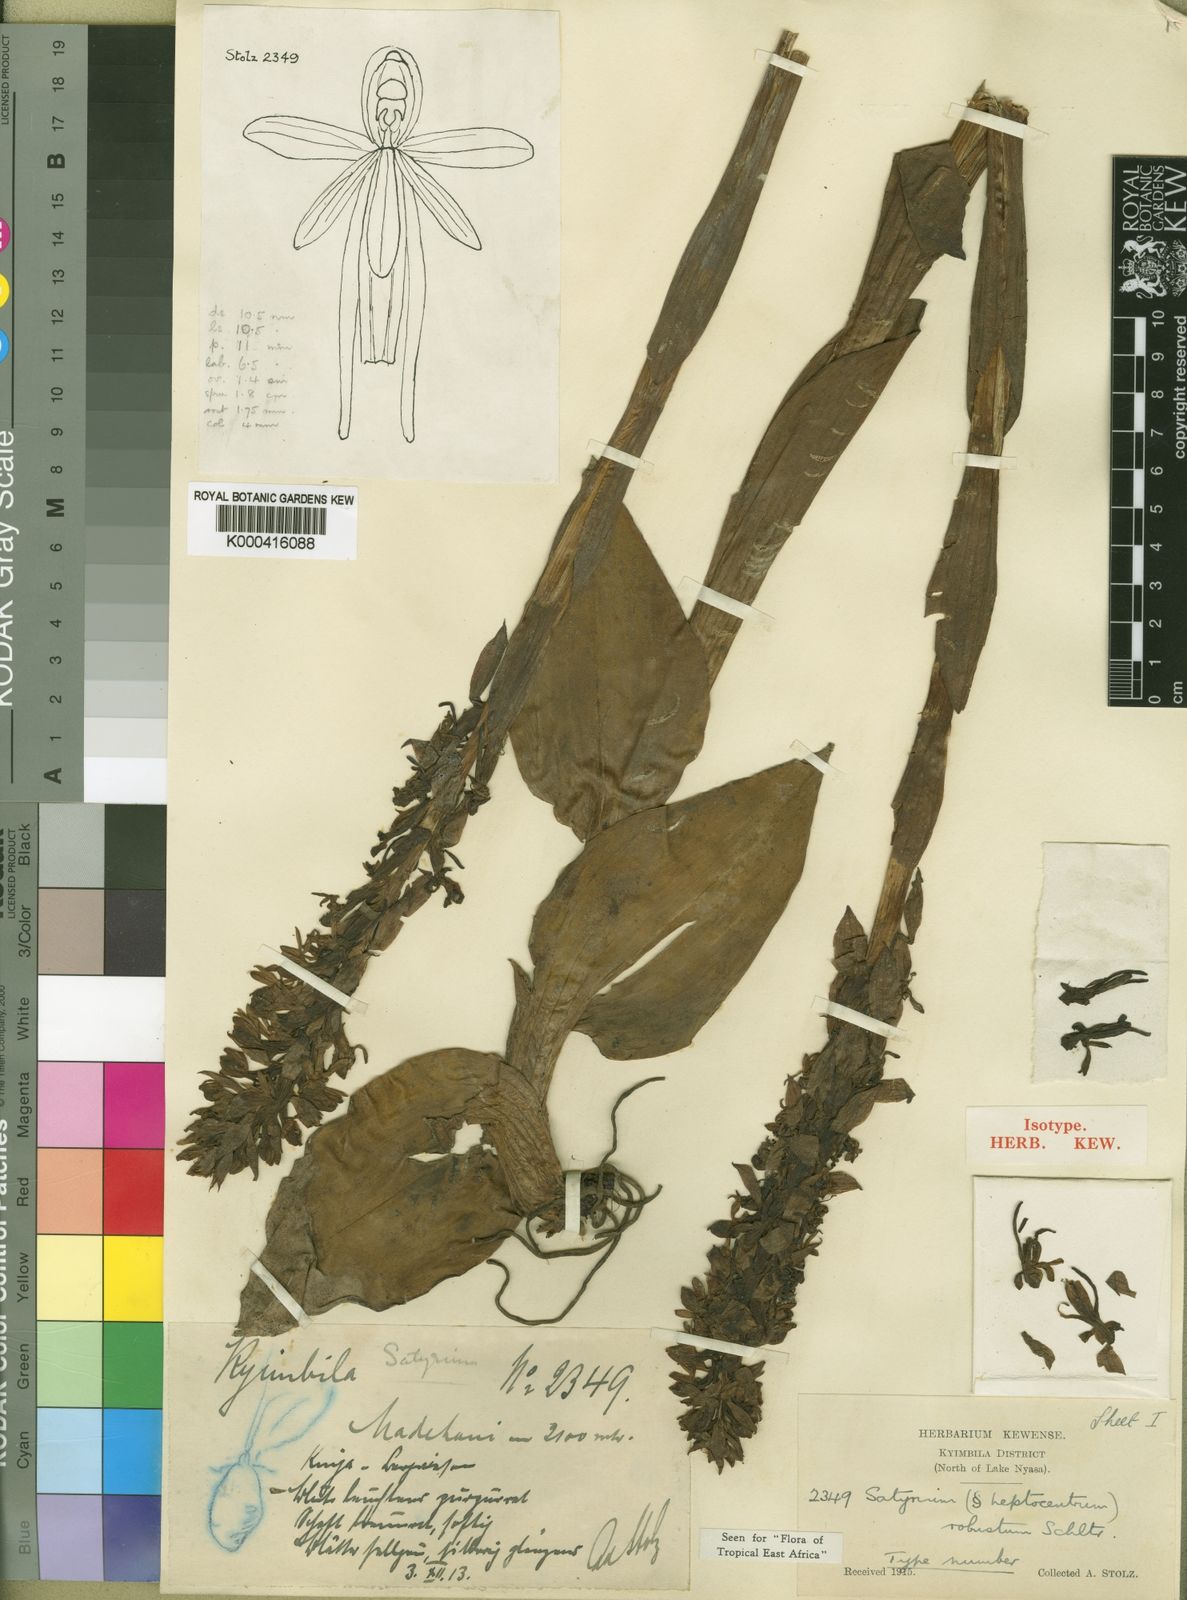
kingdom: Plantae
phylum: Tracheophyta
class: Liliopsida
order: Asparagales
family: Orchidaceae
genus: Satyrium
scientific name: Satyrium robustum
